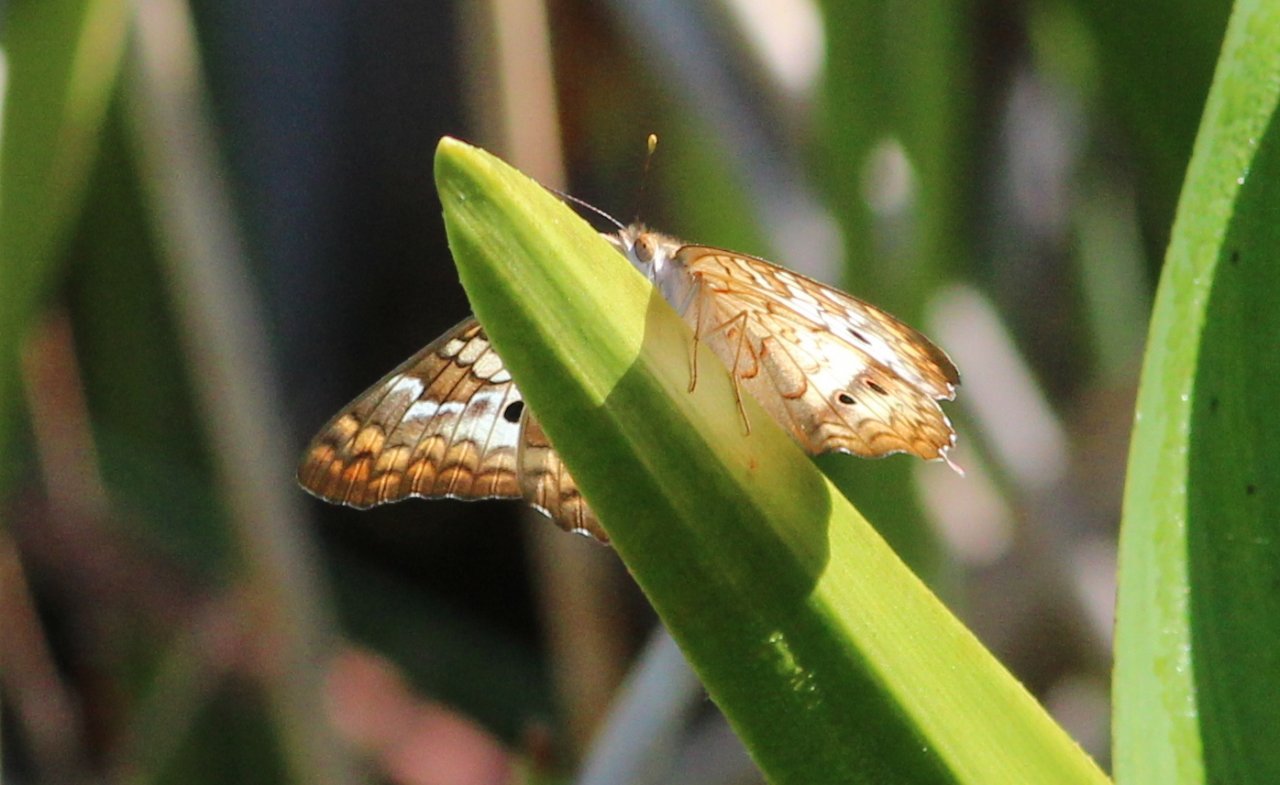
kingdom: Animalia
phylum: Arthropoda
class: Insecta
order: Lepidoptera
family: Nymphalidae
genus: Anartia
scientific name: Anartia jatrophae
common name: White Peacock
